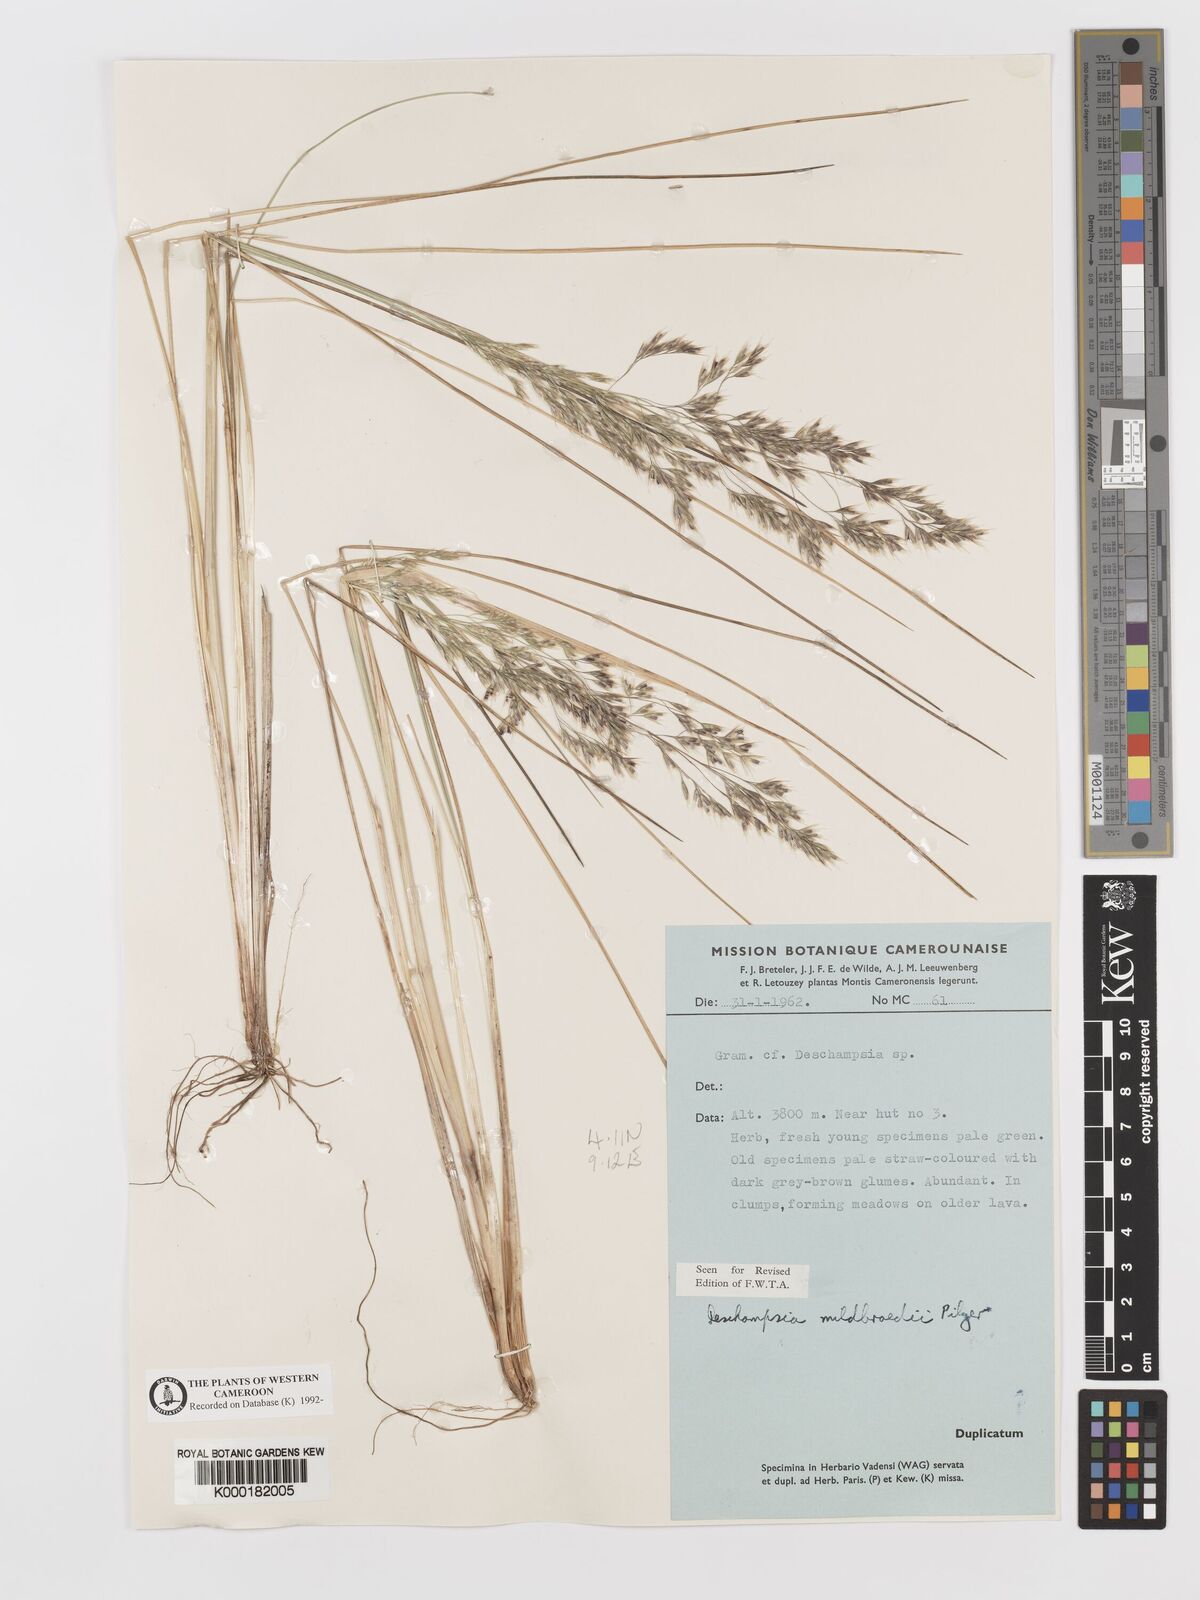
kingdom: Plantae
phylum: Tracheophyta
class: Liliopsida
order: Poales
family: Poaceae
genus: Deschampsia
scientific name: Deschampsia mildbraedii
